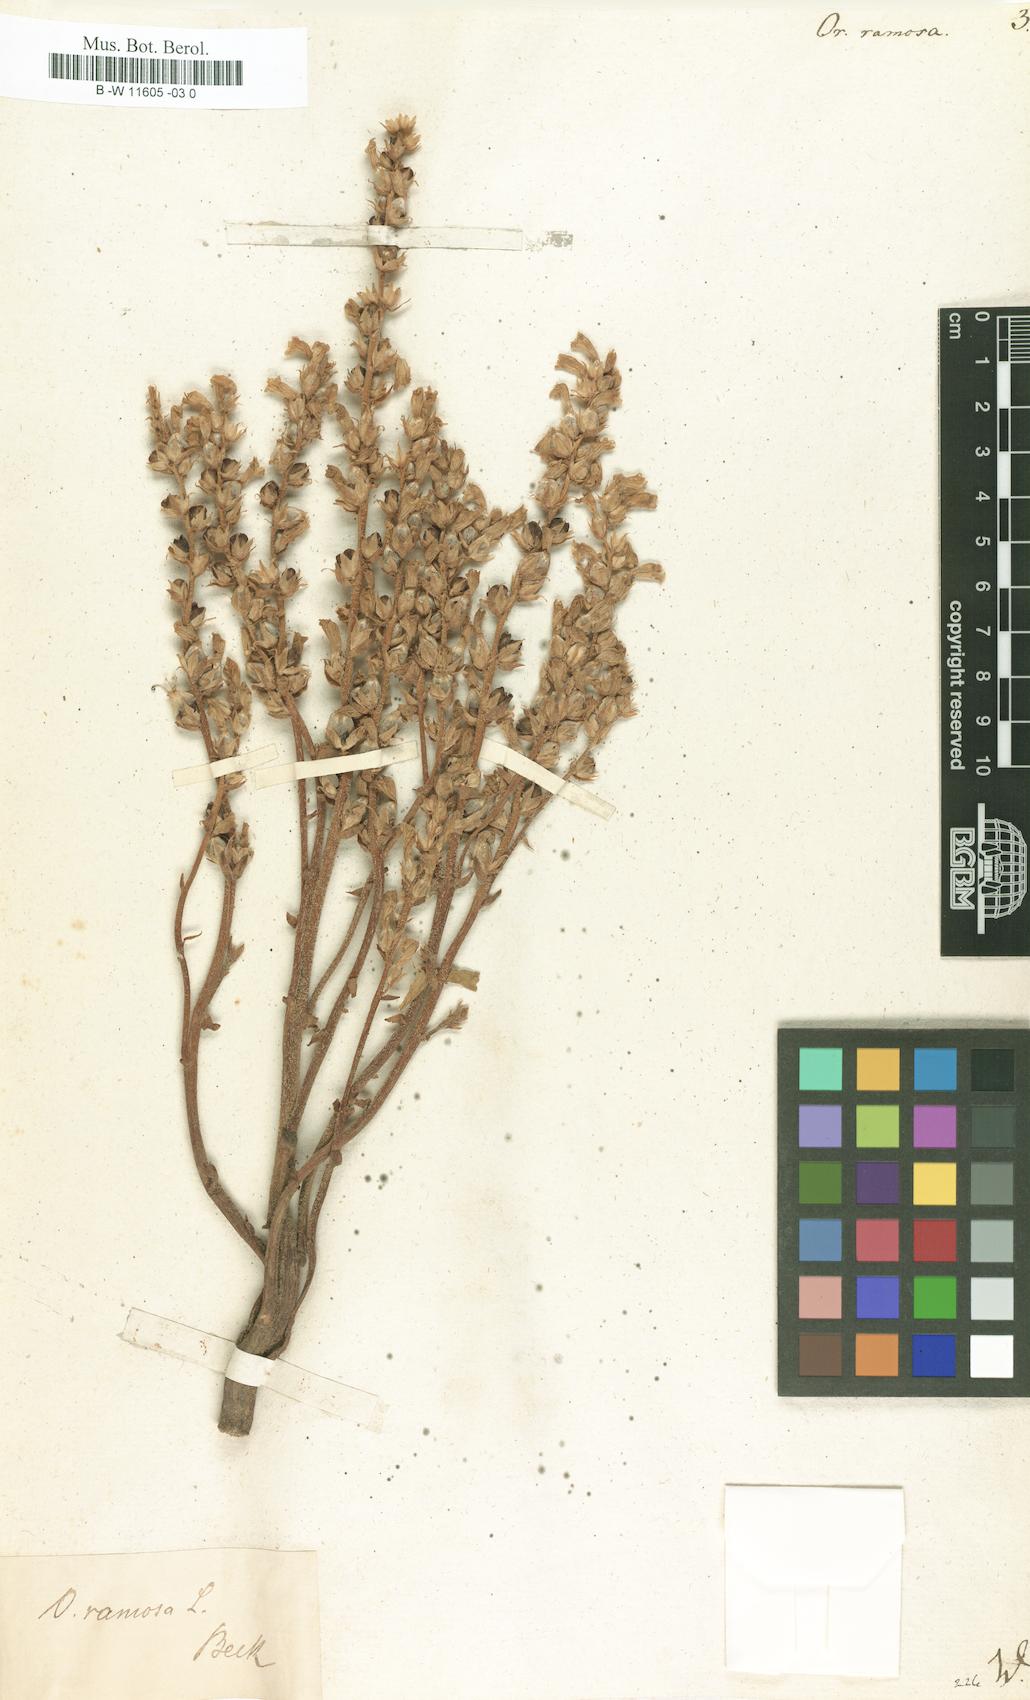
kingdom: Plantae
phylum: Tracheophyta
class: Magnoliopsida
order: Lamiales
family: Orobanchaceae
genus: Phelipanche
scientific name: Phelipanche ramosa
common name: Branched broomrape
